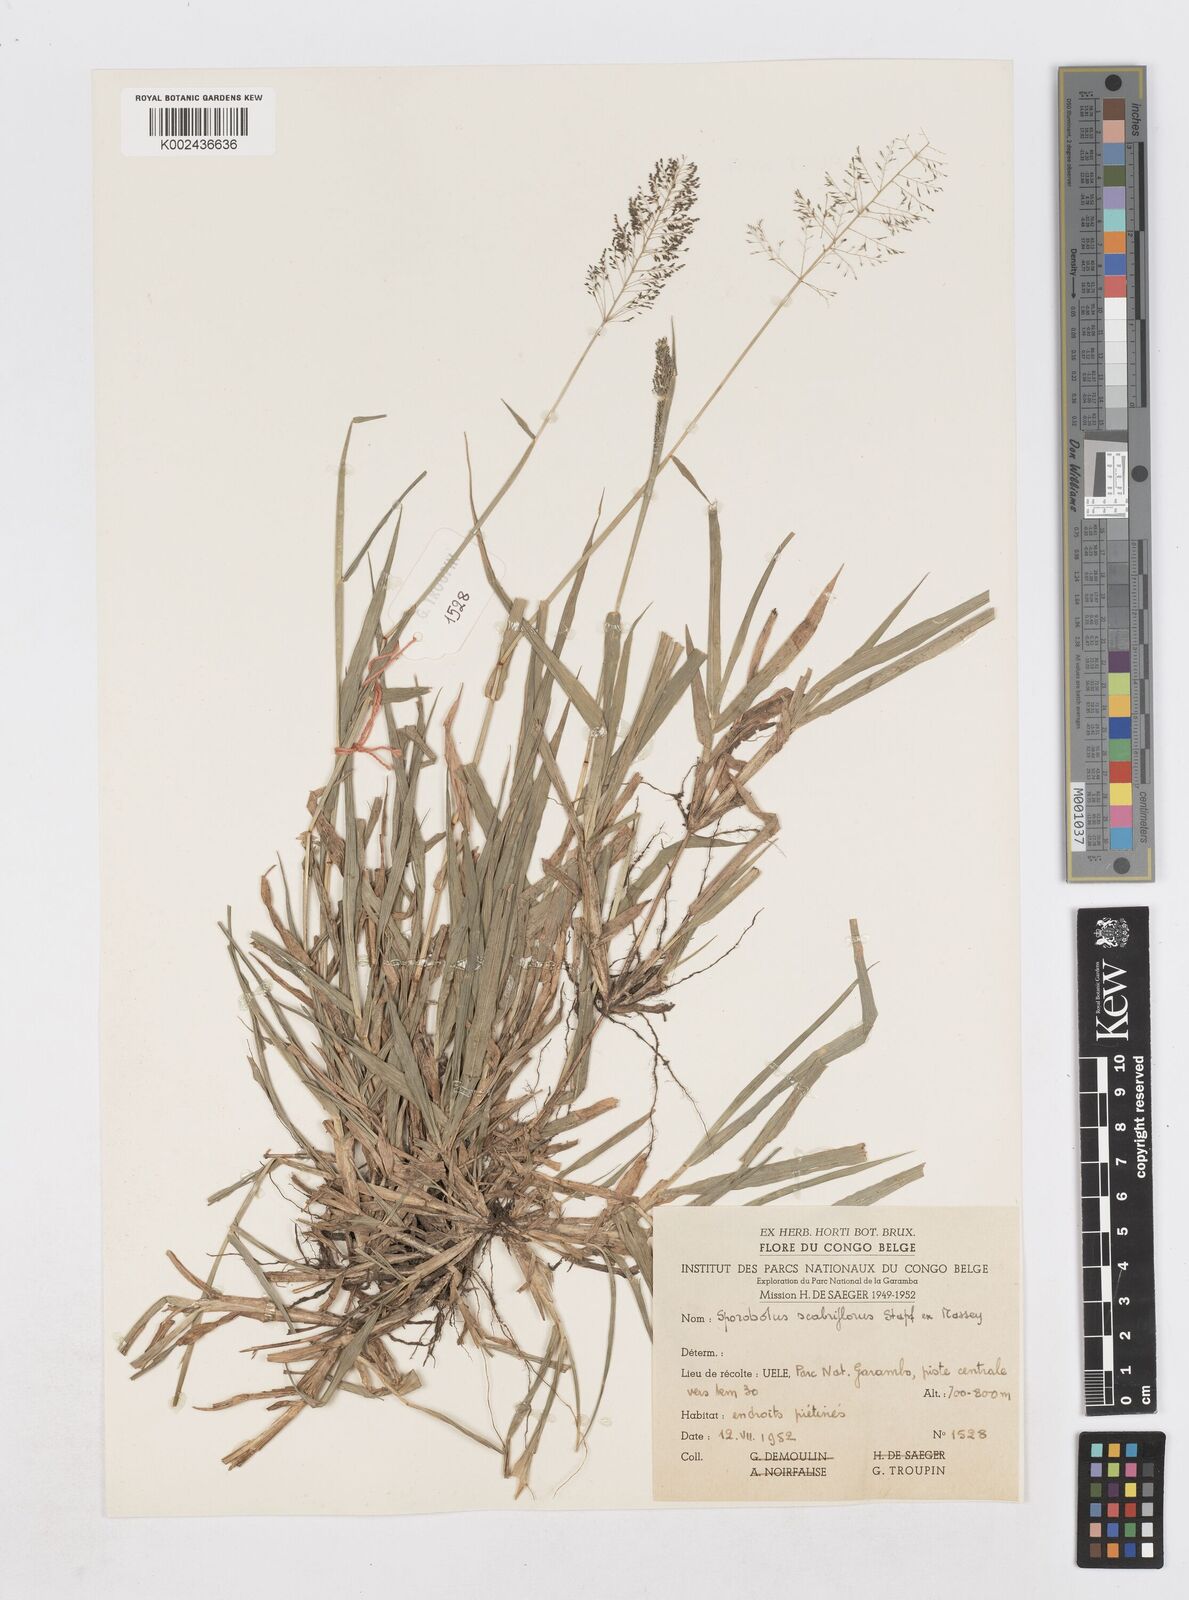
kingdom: Plantae
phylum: Tracheophyta
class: Liliopsida
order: Poales
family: Poaceae
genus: Sporobolus
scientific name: Sporobolus microprotus
